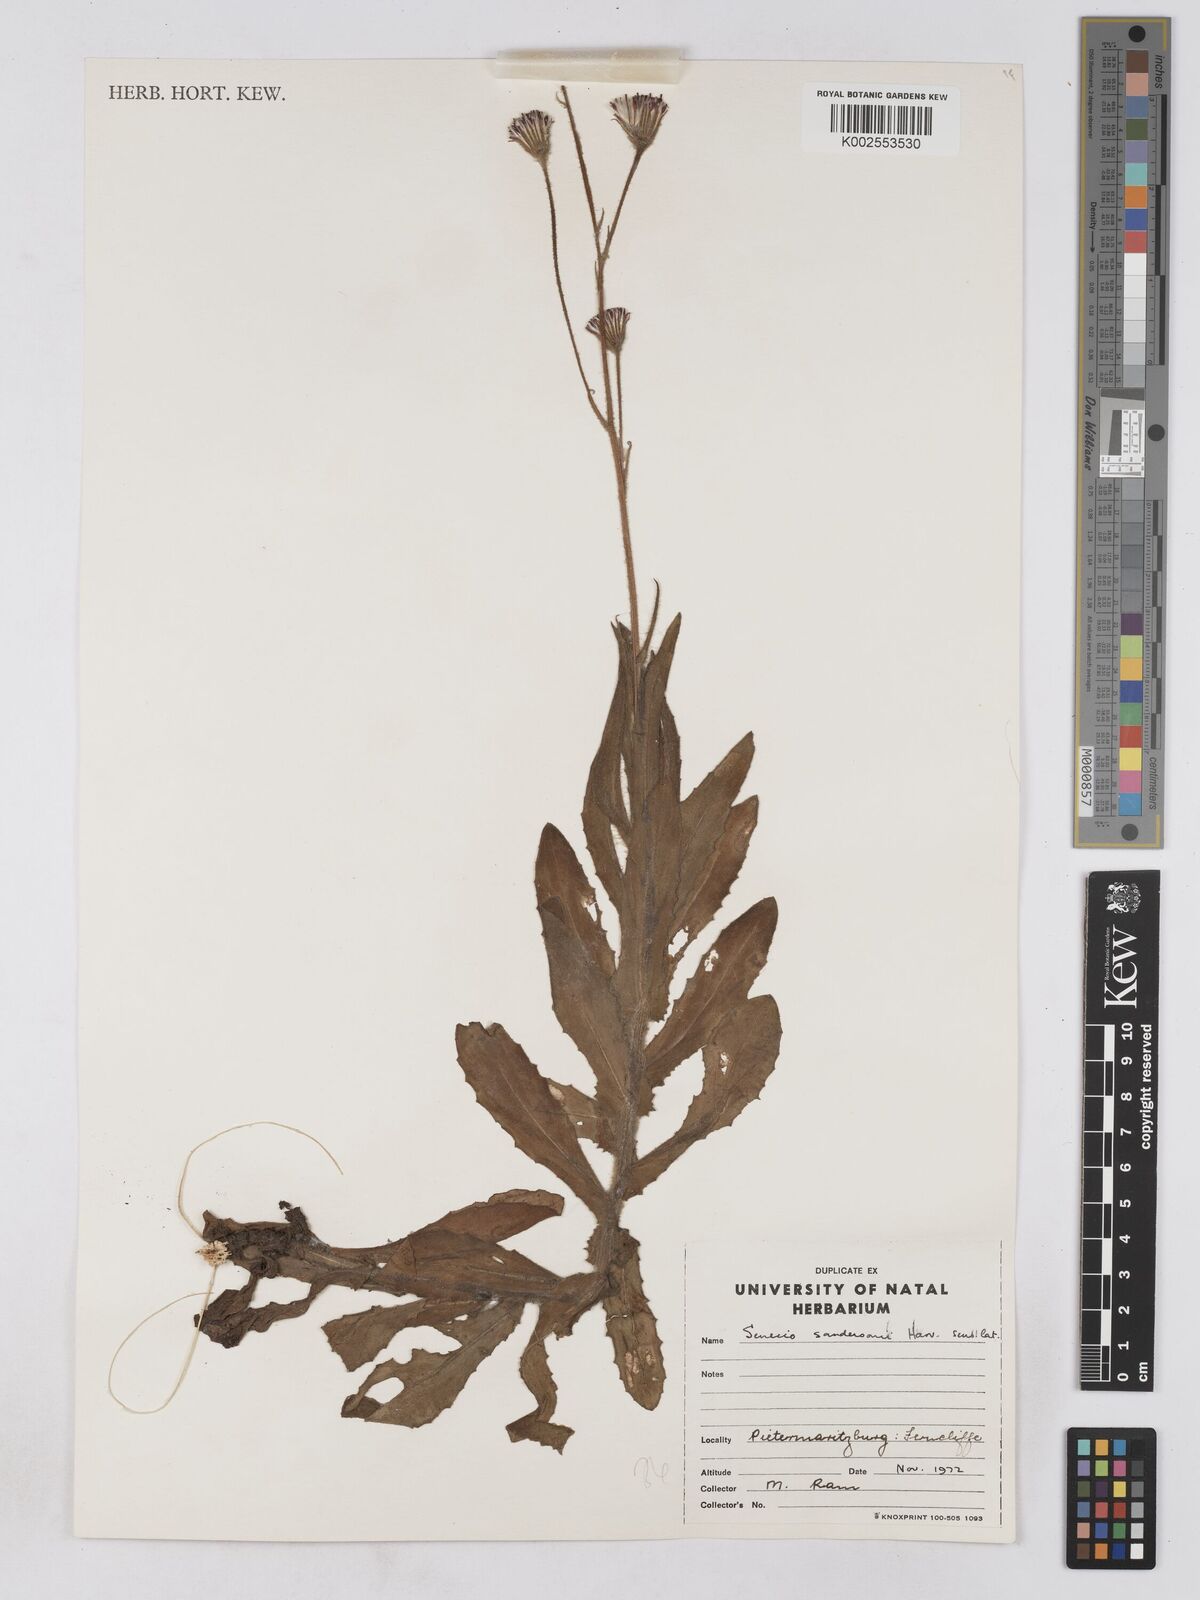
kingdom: Plantae
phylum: Tracheophyta
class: Magnoliopsida
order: Asterales
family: Asteraceae
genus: Senecio
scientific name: Senecio sandersonii
